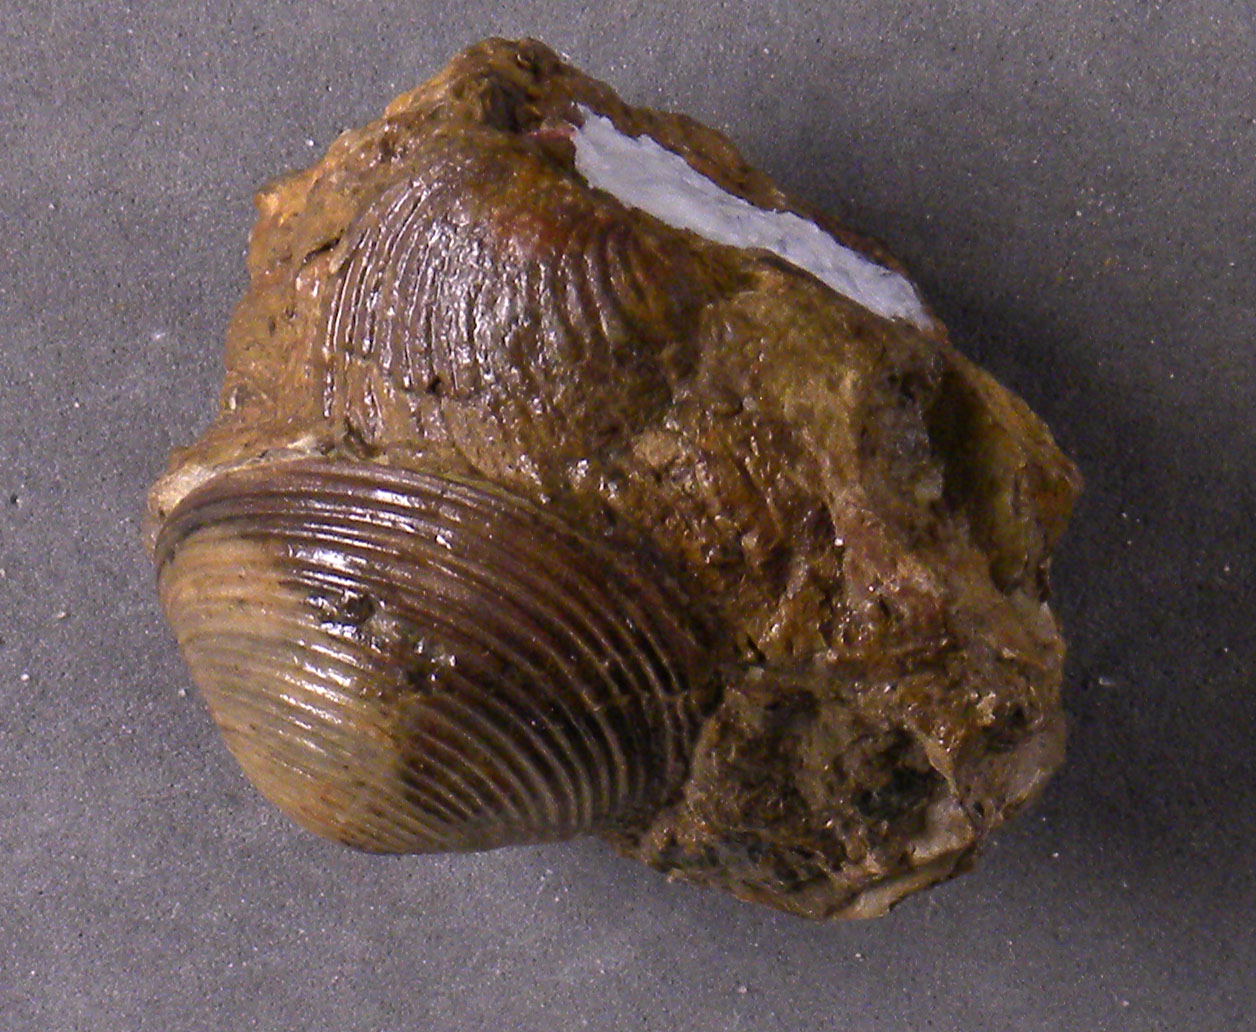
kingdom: Animalia
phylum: Mollusca
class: Bivalvia
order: Carditida
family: Astartidae
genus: Astarte
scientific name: Astarte
